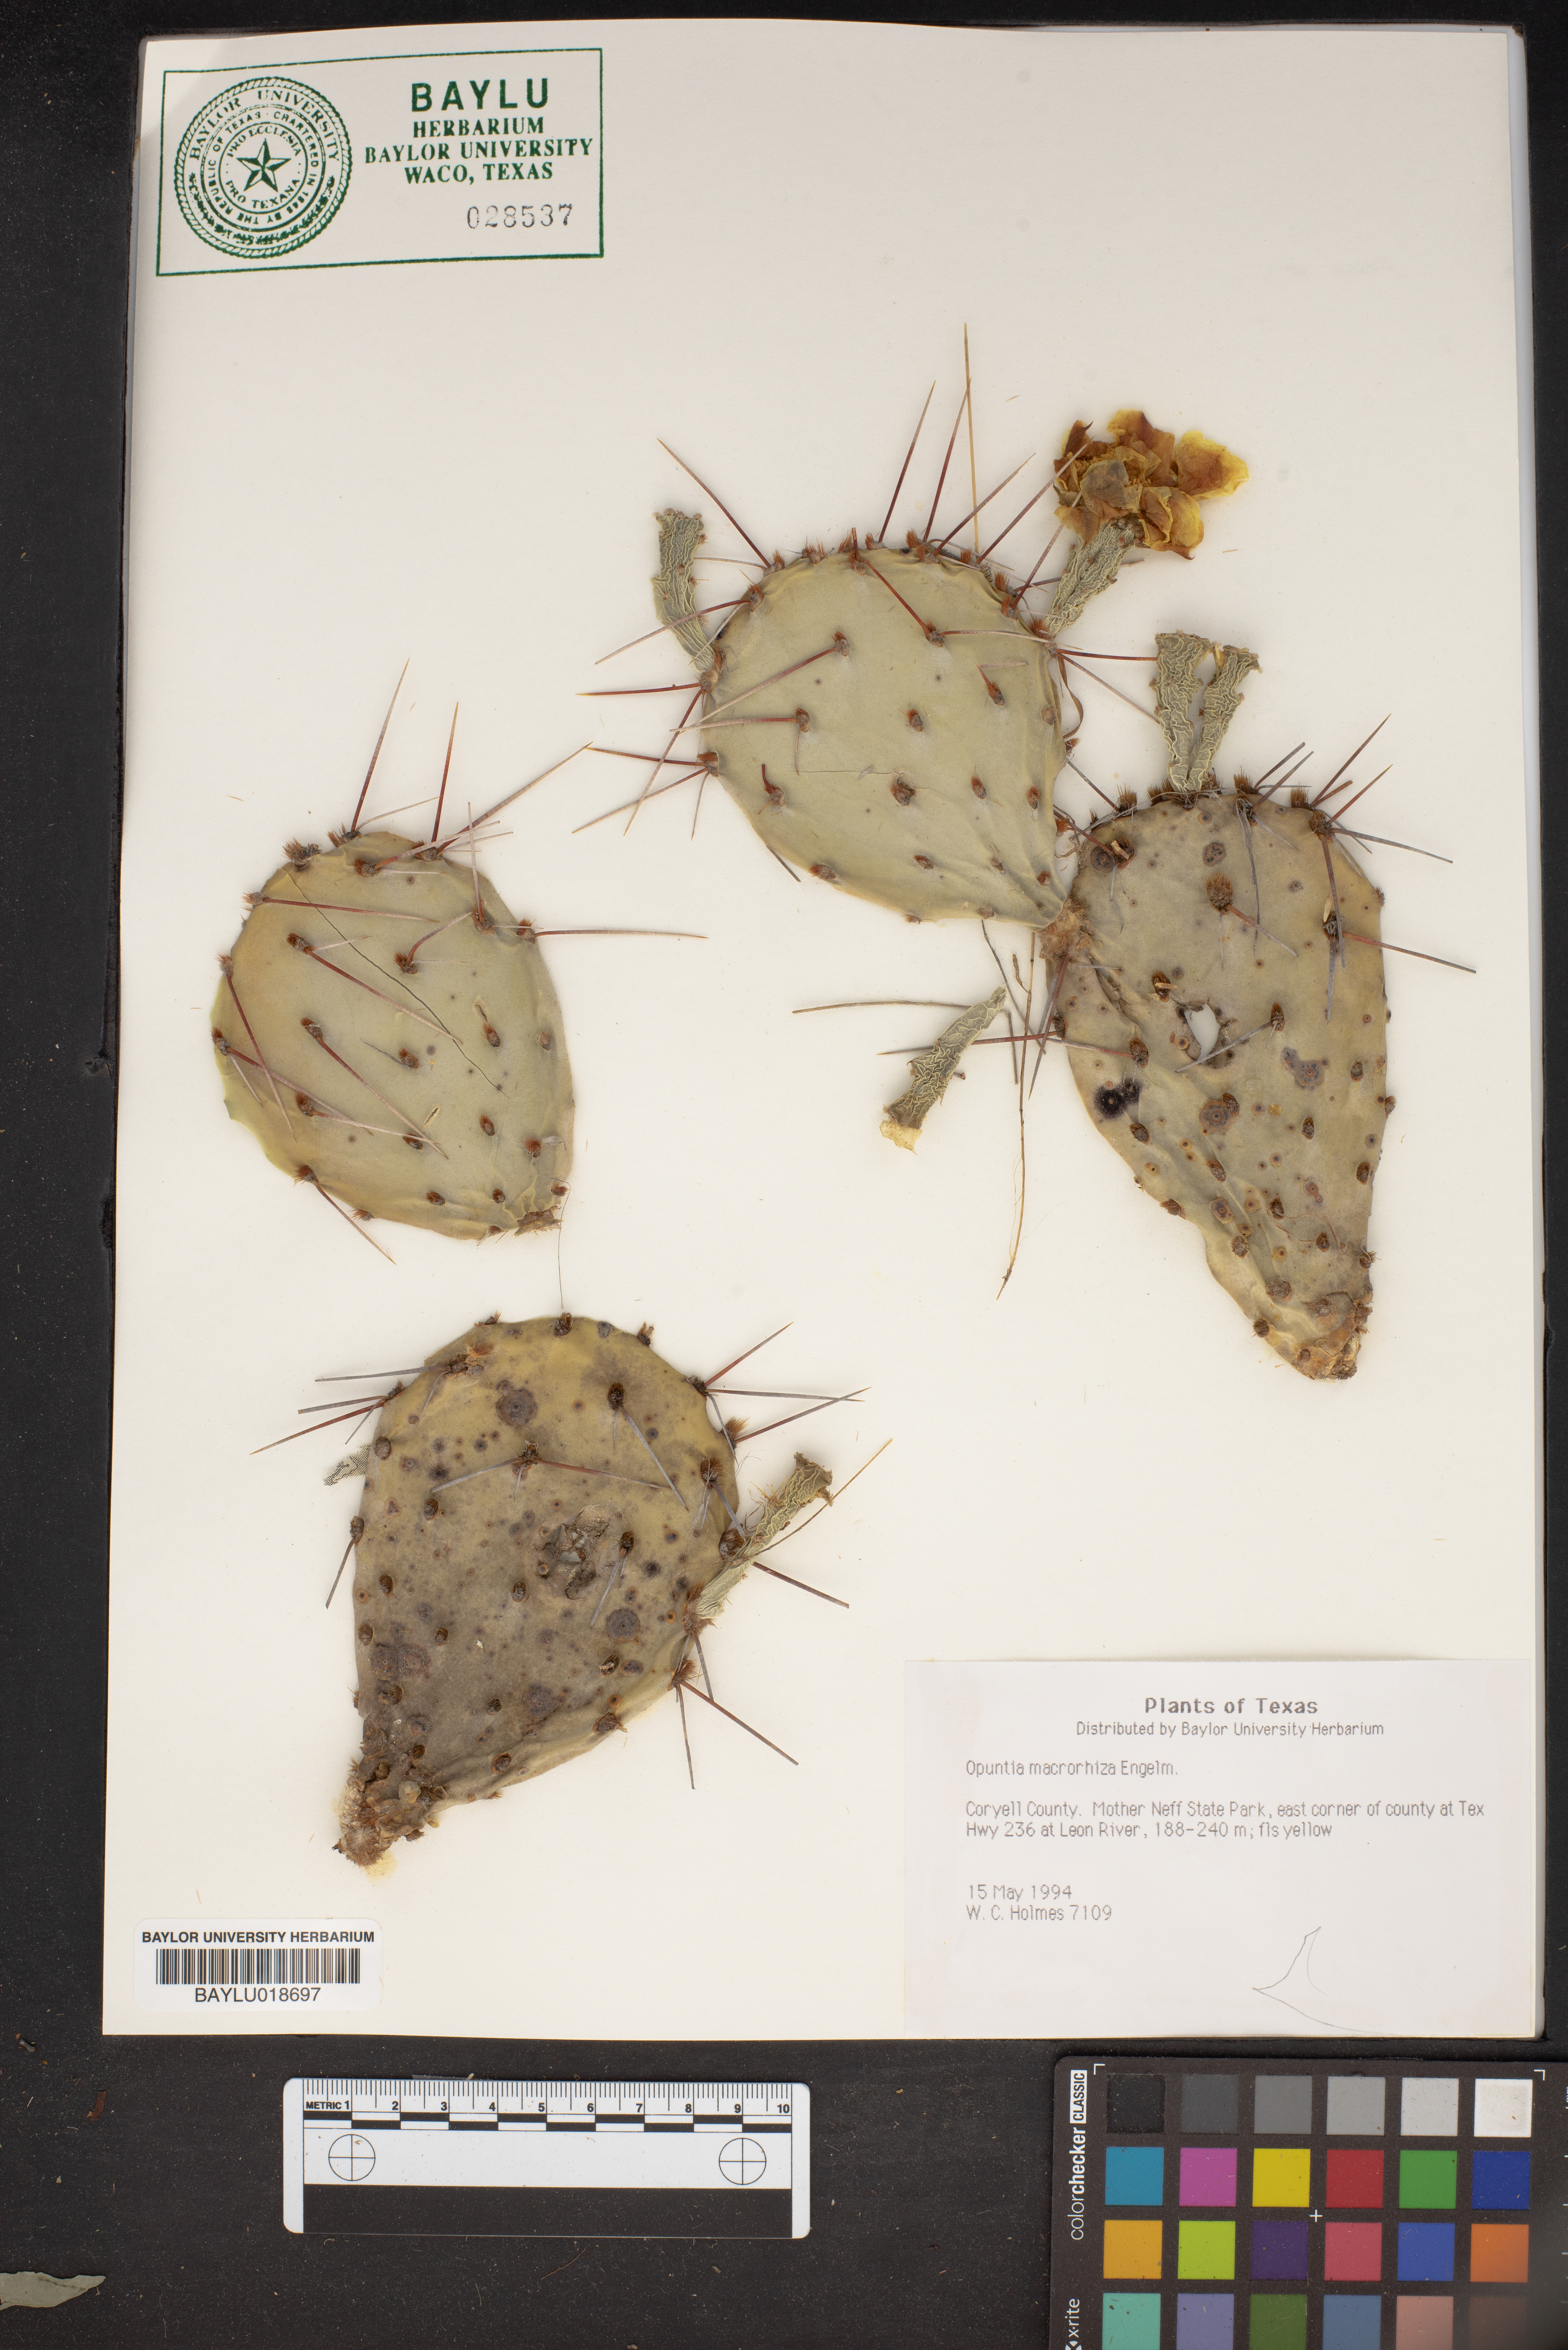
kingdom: Plantae
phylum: Tracheophyta
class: Magnoliopsida
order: Caryophyllales
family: Cactaceae
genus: Opuntia
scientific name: Opuntia macrorhiza
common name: Grassland pricklypear
